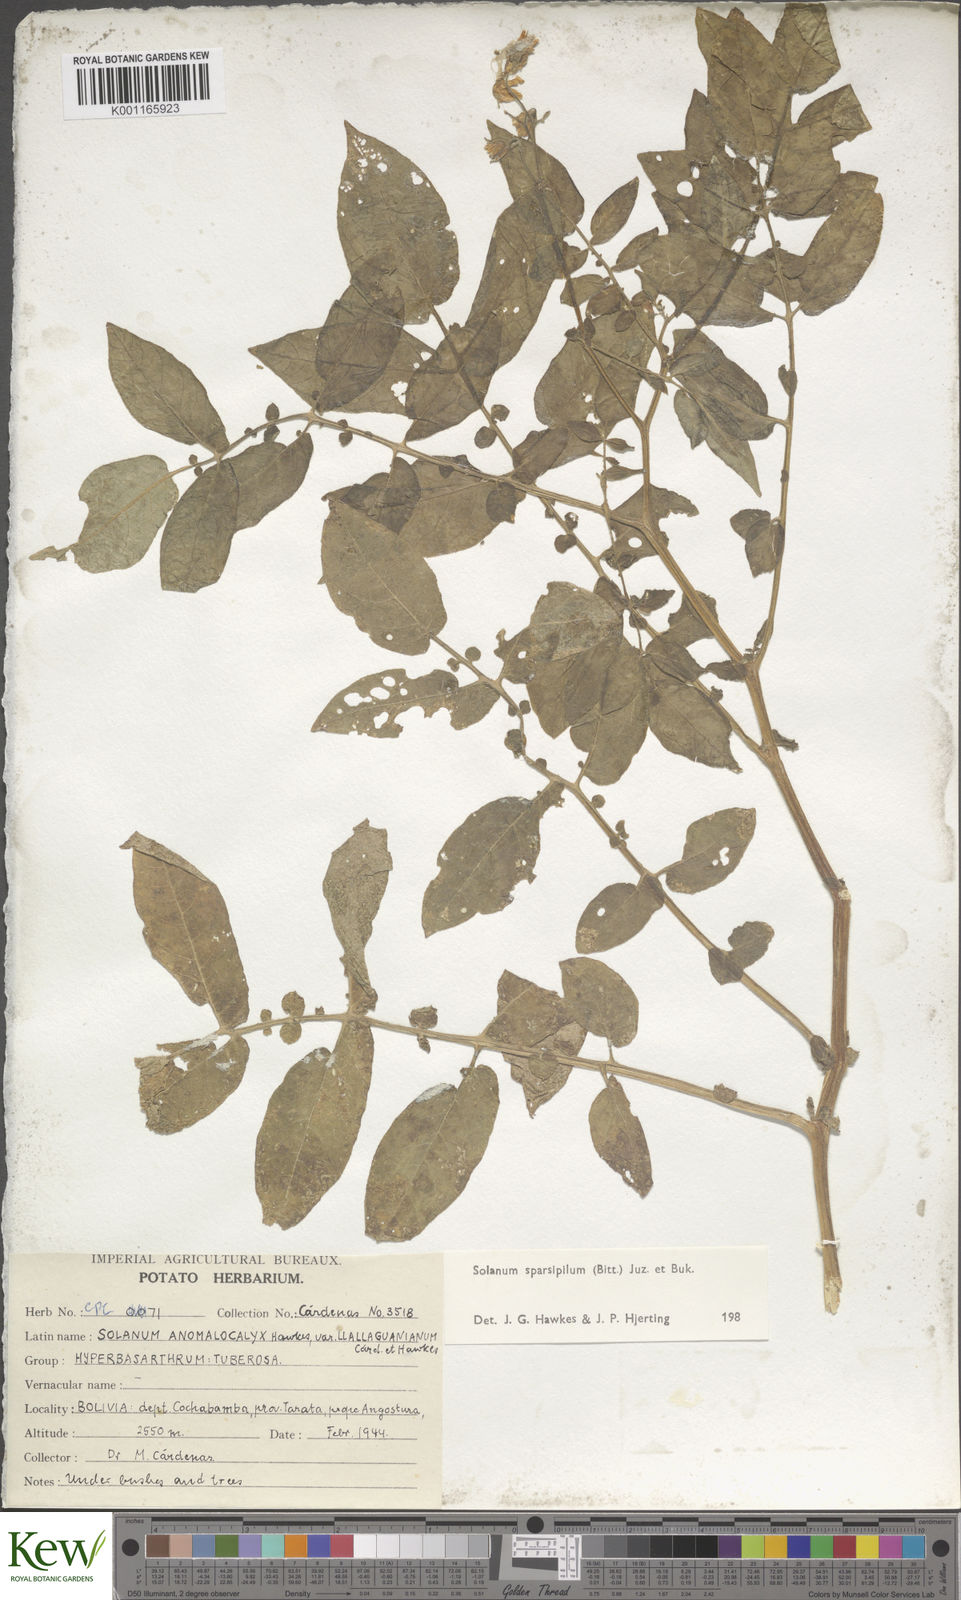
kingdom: Plantae
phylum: Tracheophyta
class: Magnoliopsida
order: Solanales
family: Solanaceae
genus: Solanum
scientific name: Solanum brevicaule
